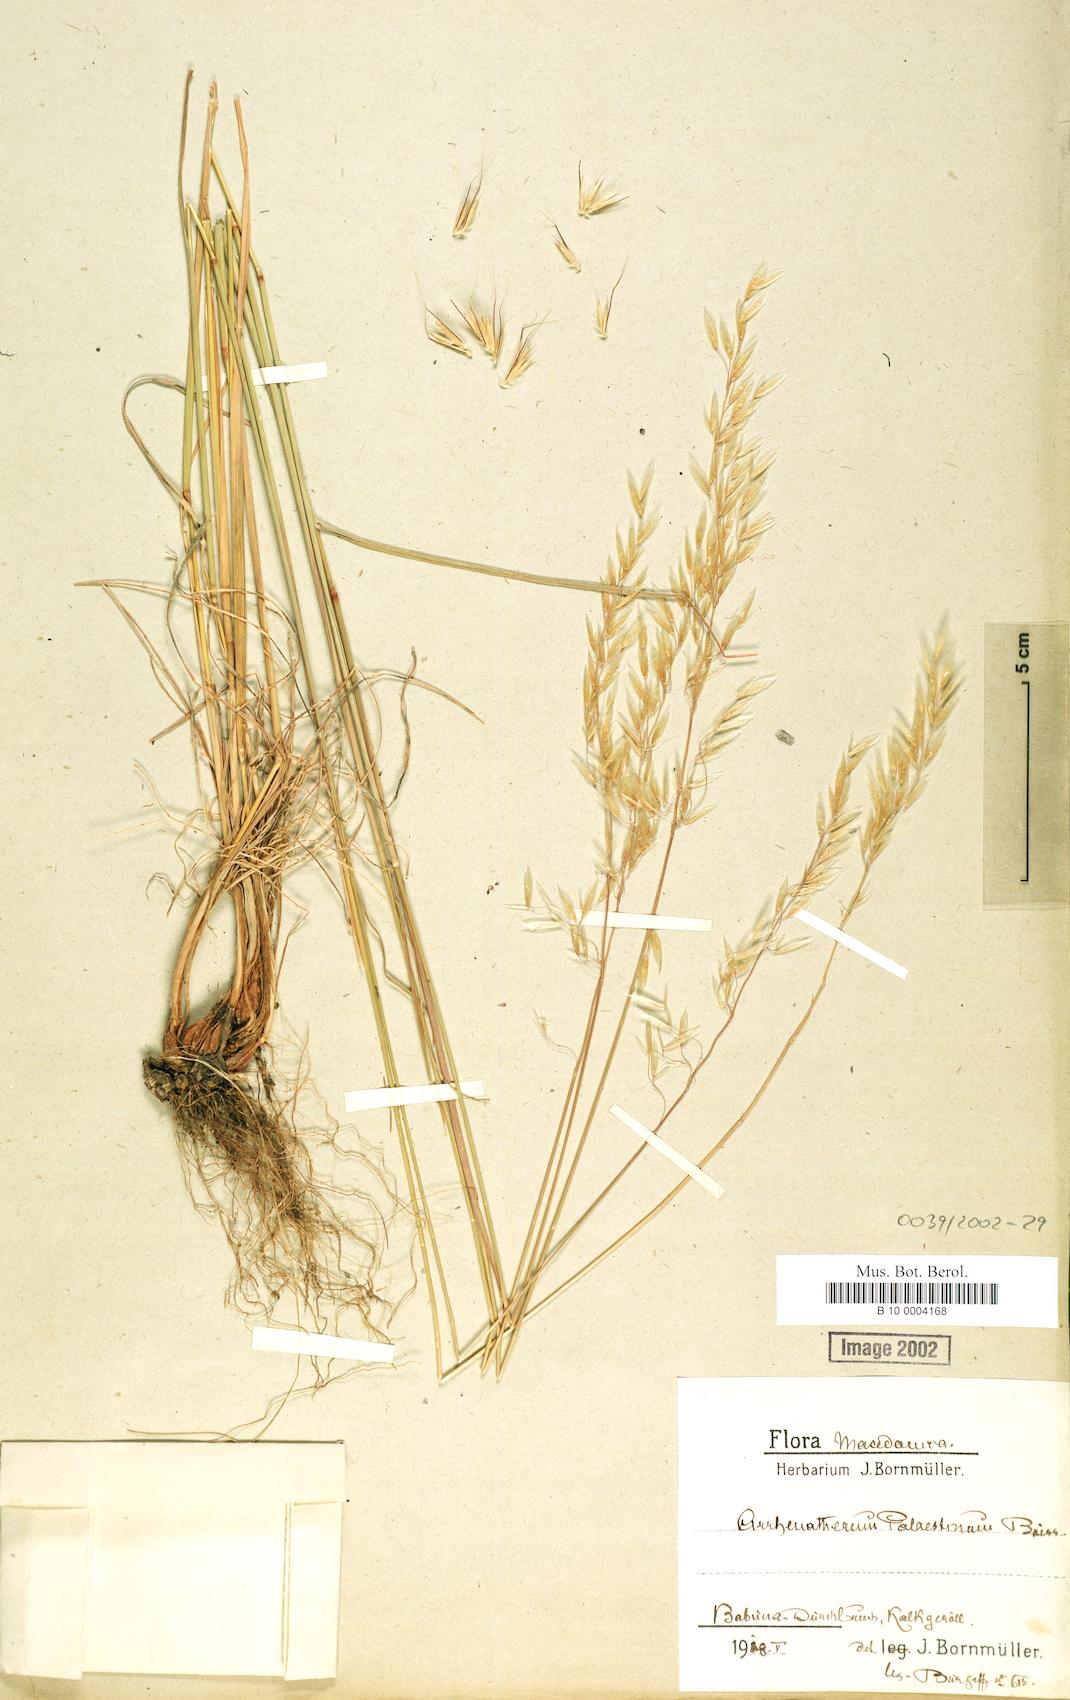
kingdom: Plantae
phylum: Tracheophyta
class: Liliopsida
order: Poales
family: Poaceae
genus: Arrhenatherum
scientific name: Arrhenatherum palaestinum
